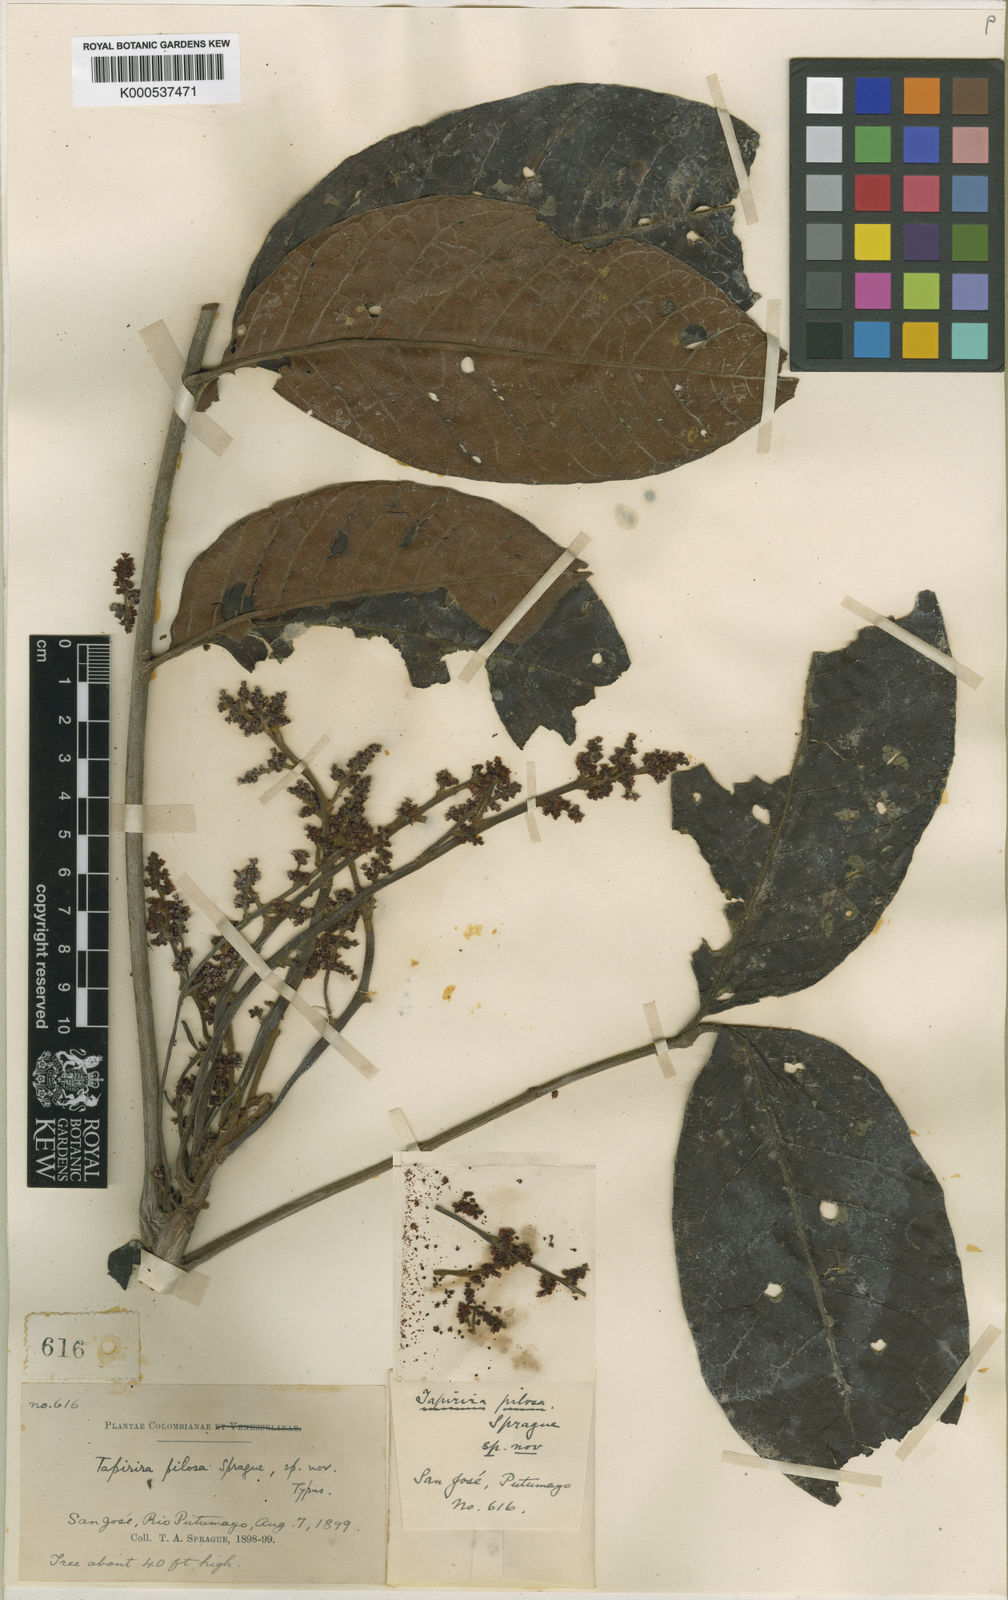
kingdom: Plantae
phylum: Tracheophyta
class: Magnoliopsida
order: Sapindales
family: Anacardiaceae
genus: Tapirira
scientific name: Tapirira pilosa
